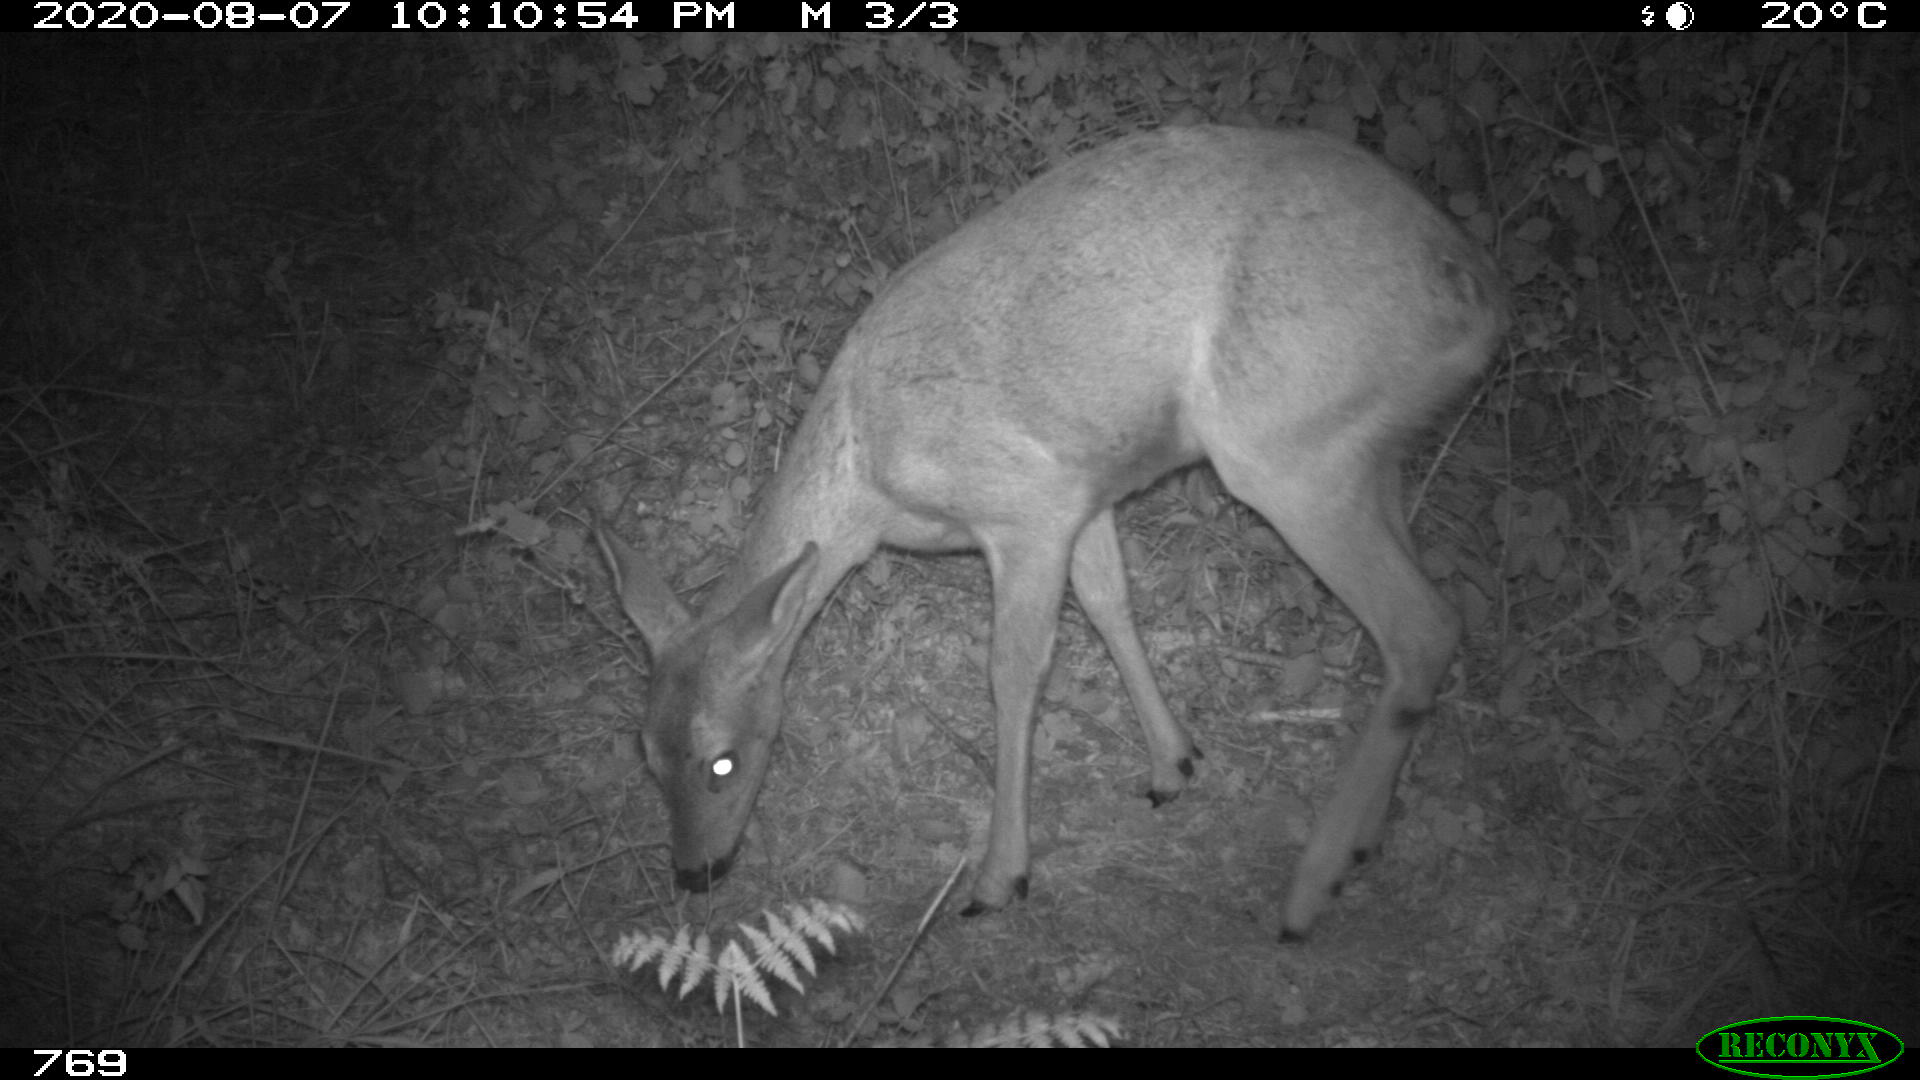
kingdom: Animalia
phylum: Chordata
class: Mammalia
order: Artiodactyla
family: Cervidae
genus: Capreolus
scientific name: Capreolus capreolus
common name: Western roe deer
